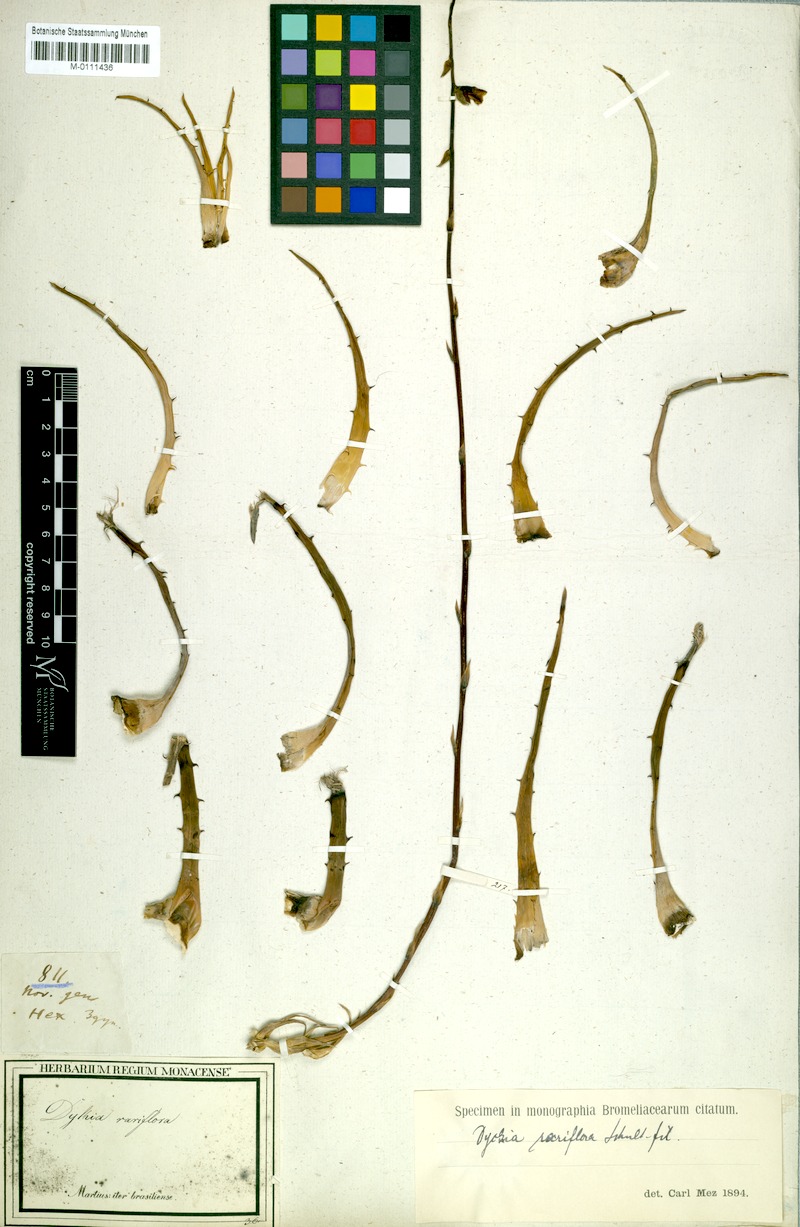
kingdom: Plantae
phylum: Tracheophyta
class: Liliopsida
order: Poales
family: Bromeliaceae
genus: Dyckia
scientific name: Dyckia rariflora
